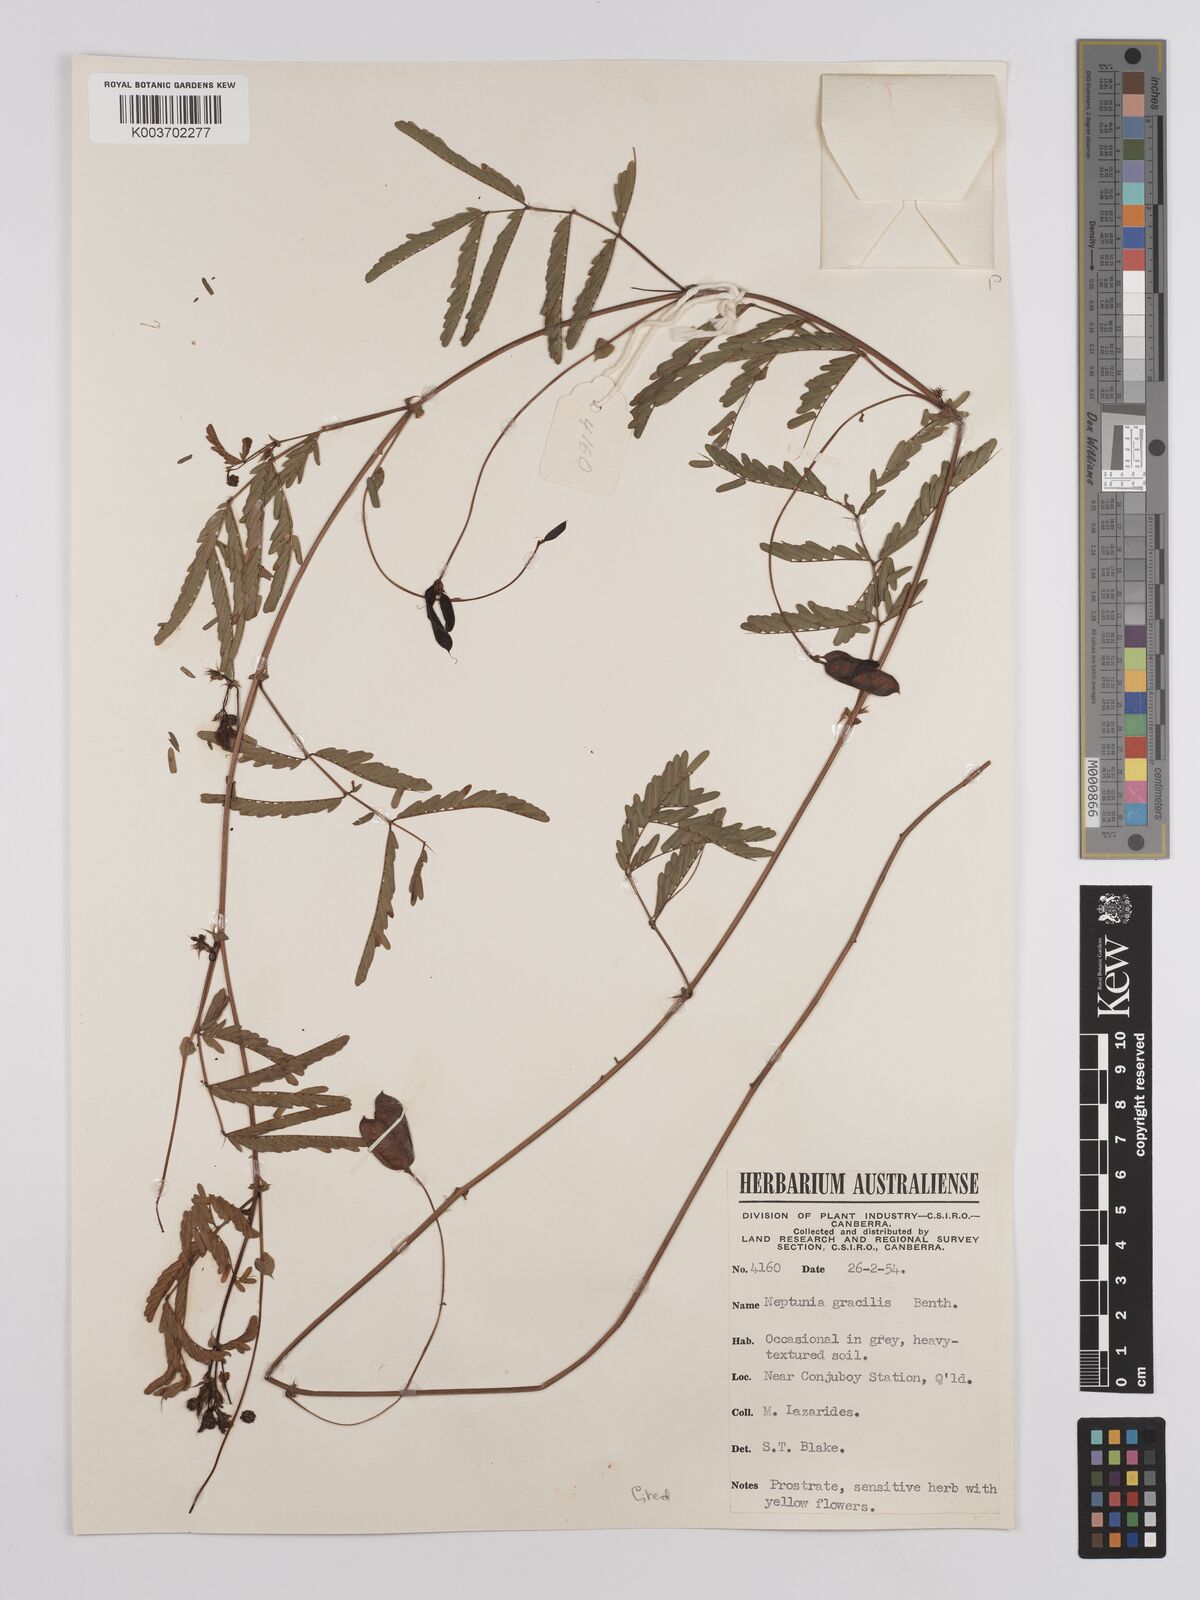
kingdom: Plantae
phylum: Tracheophyta
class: Magnoliopsida
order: Fabales
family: Fabaceae
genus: Neptunia
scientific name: Neptunia gracilis
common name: Sensitive-plant
